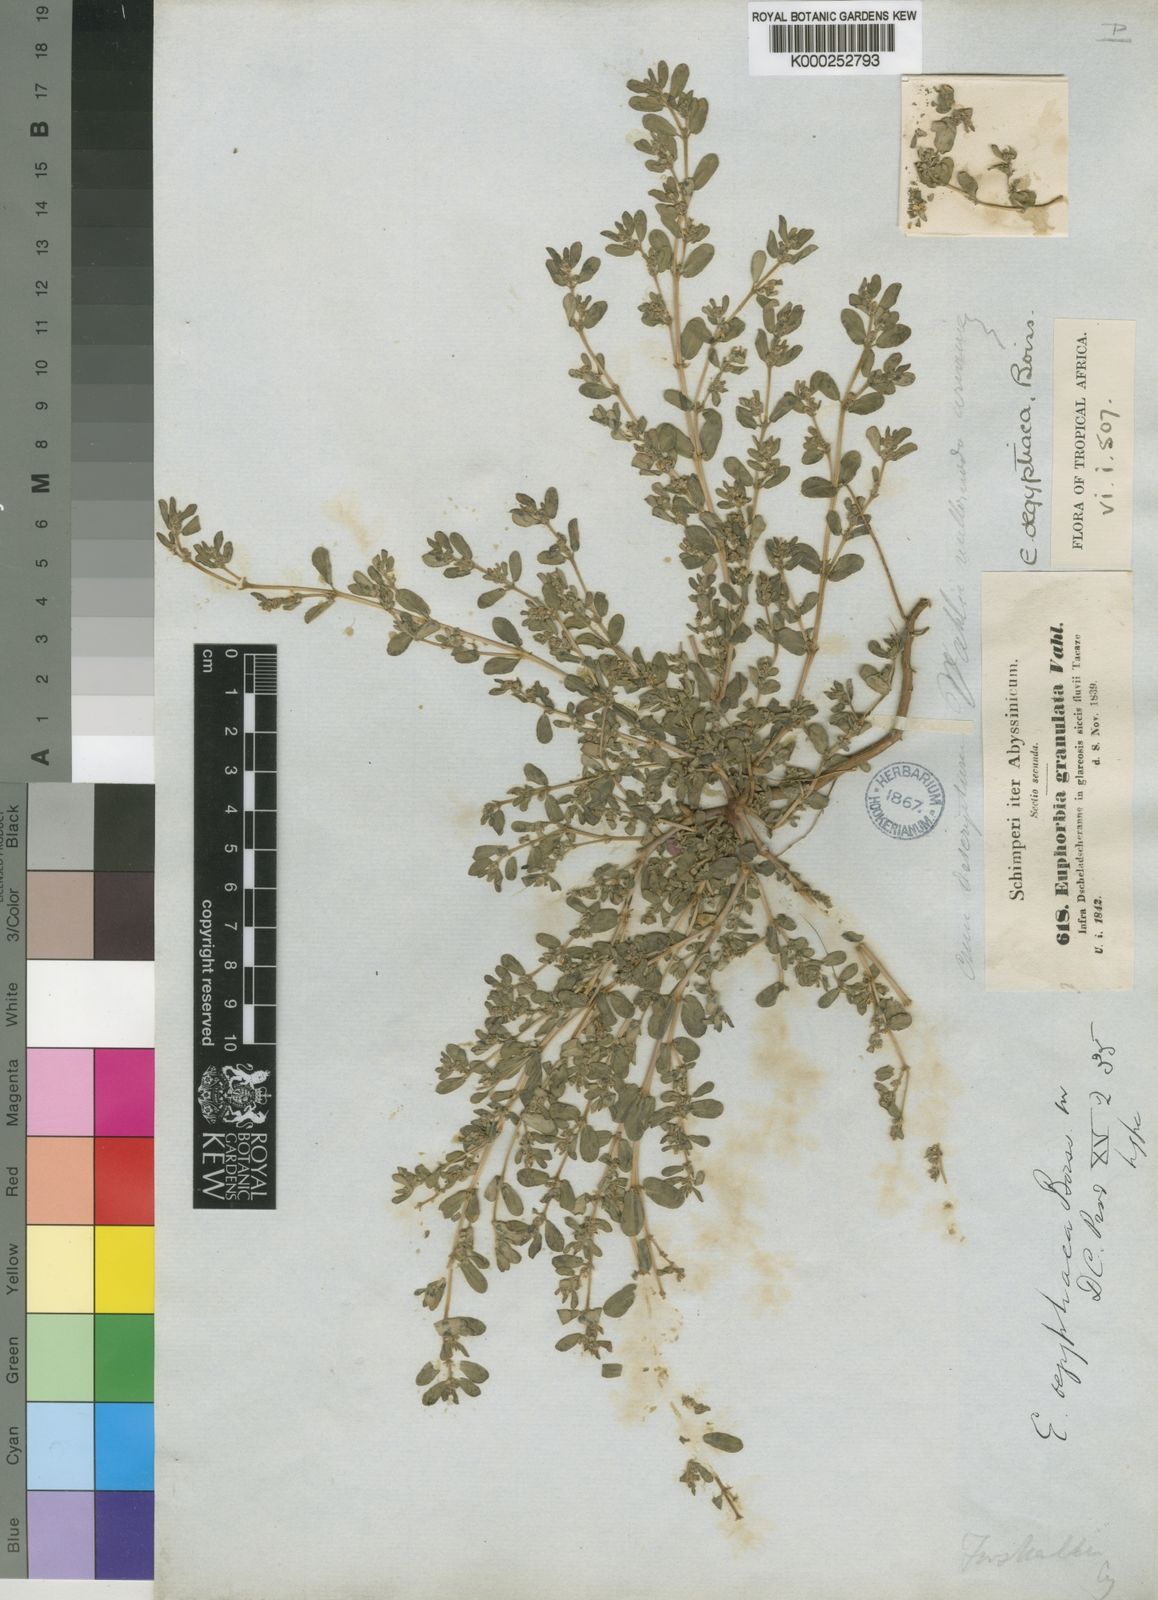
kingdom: Plantae
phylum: Tracheophyta
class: Magnoliopsida
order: Malpighiales
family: Euphorbiaceae
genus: Euphorbia
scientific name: Euphorbia
